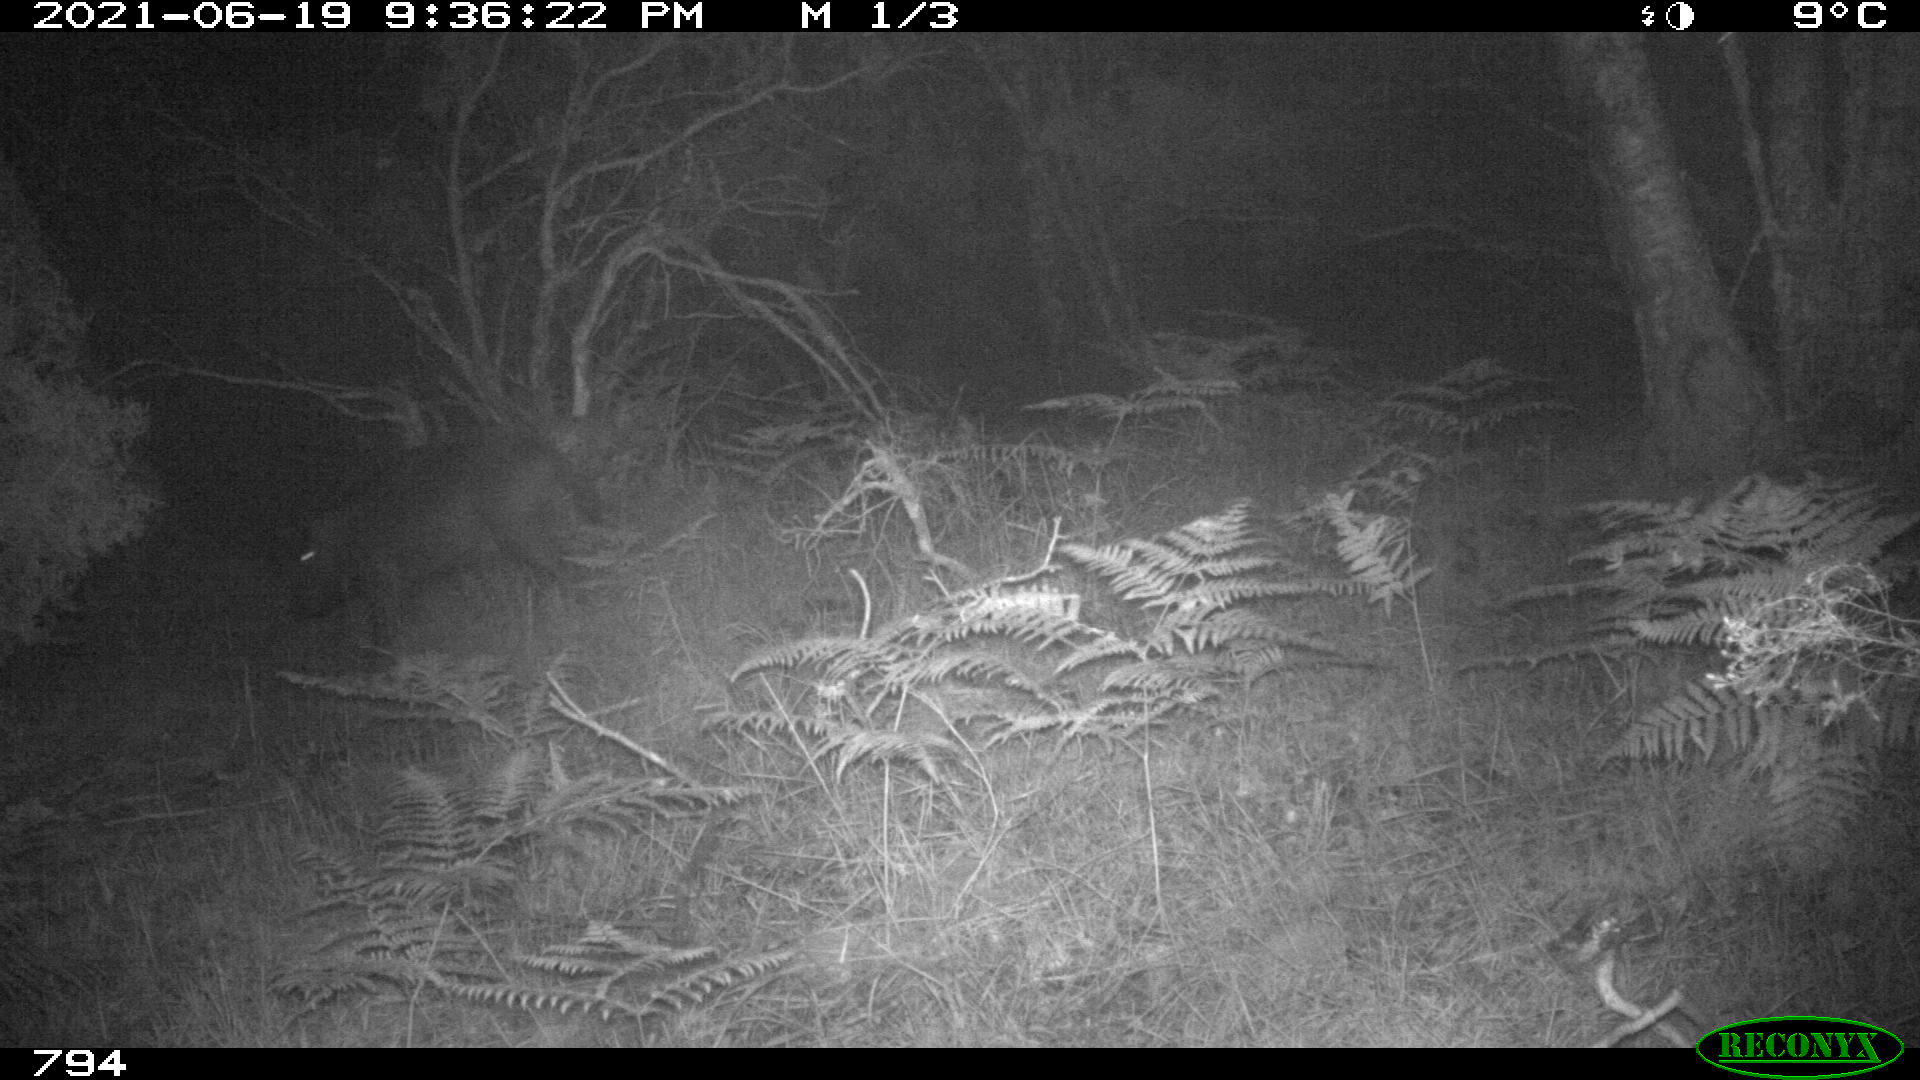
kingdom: Animalia
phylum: Chordata
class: Mammalia
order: Artiodactyla
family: Suidae
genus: Sus
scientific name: Sus scrofa
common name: Wild boar
